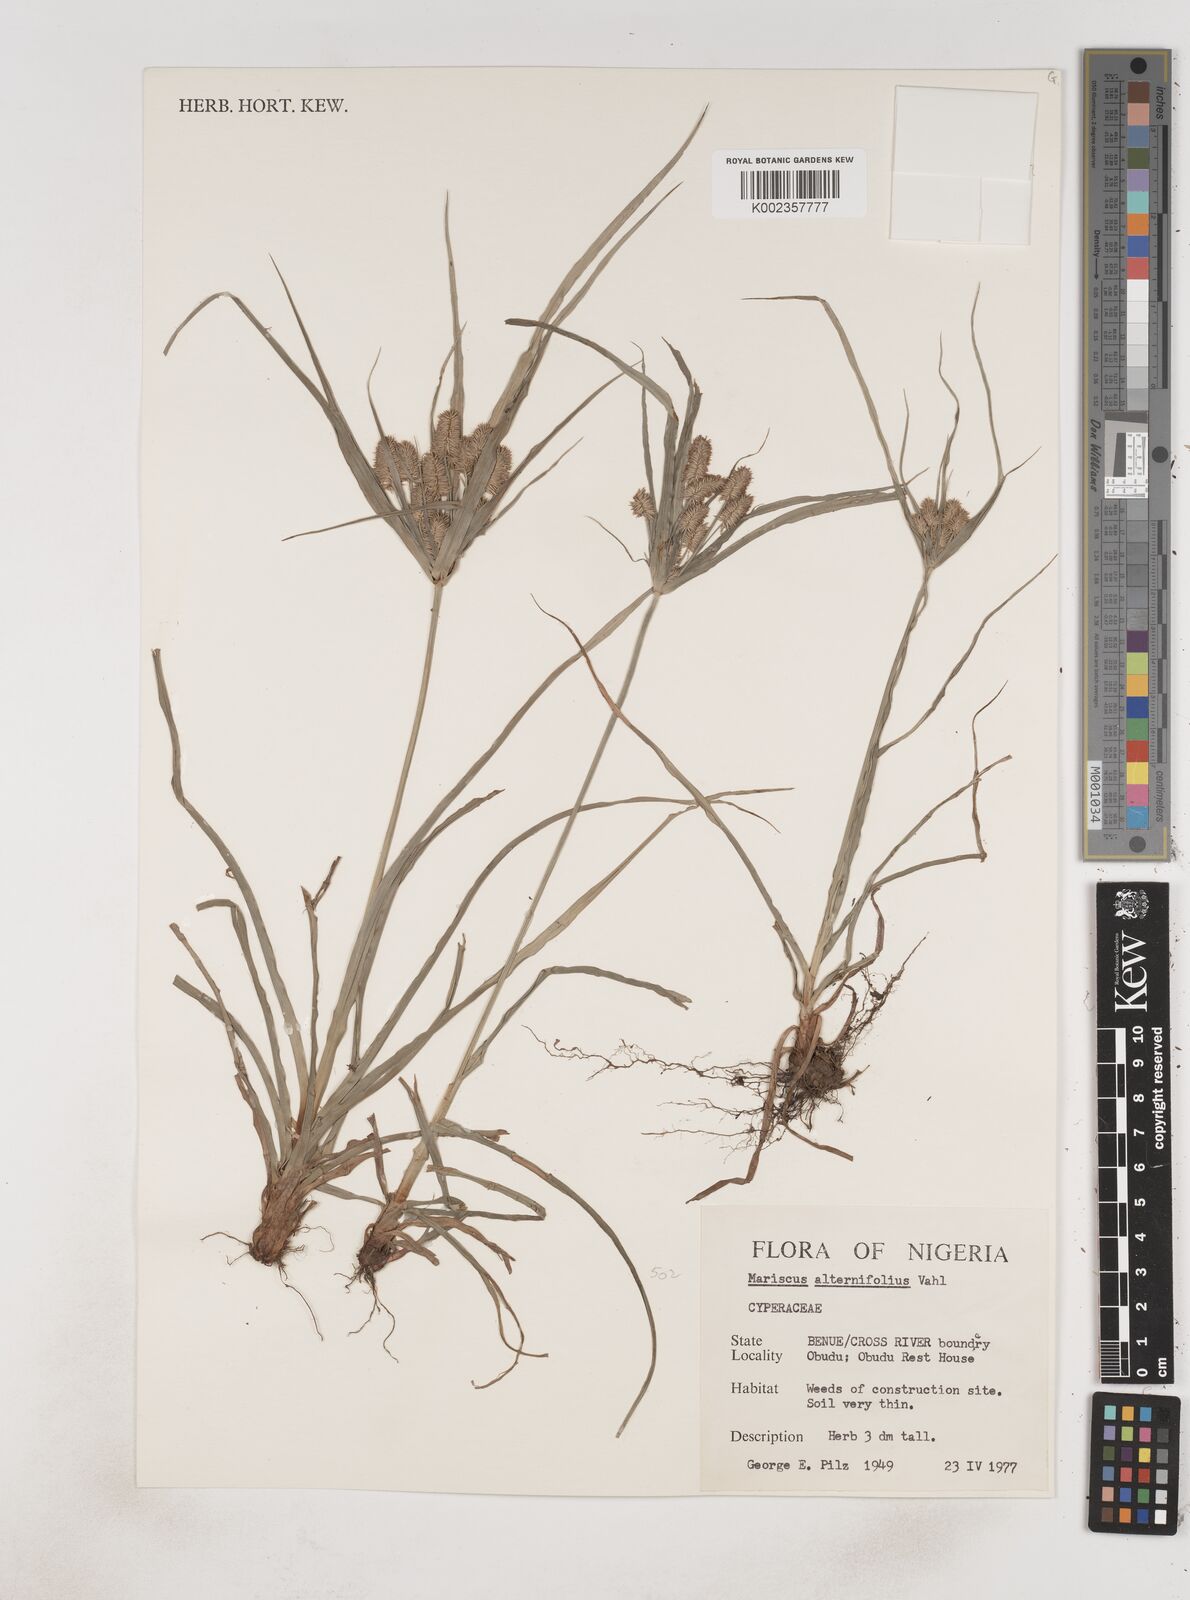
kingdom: Plantae
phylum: Tracheophyta
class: Liliopsida
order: Poales
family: Cyperaceae
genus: Cyperus
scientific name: Cyperus sublimis
